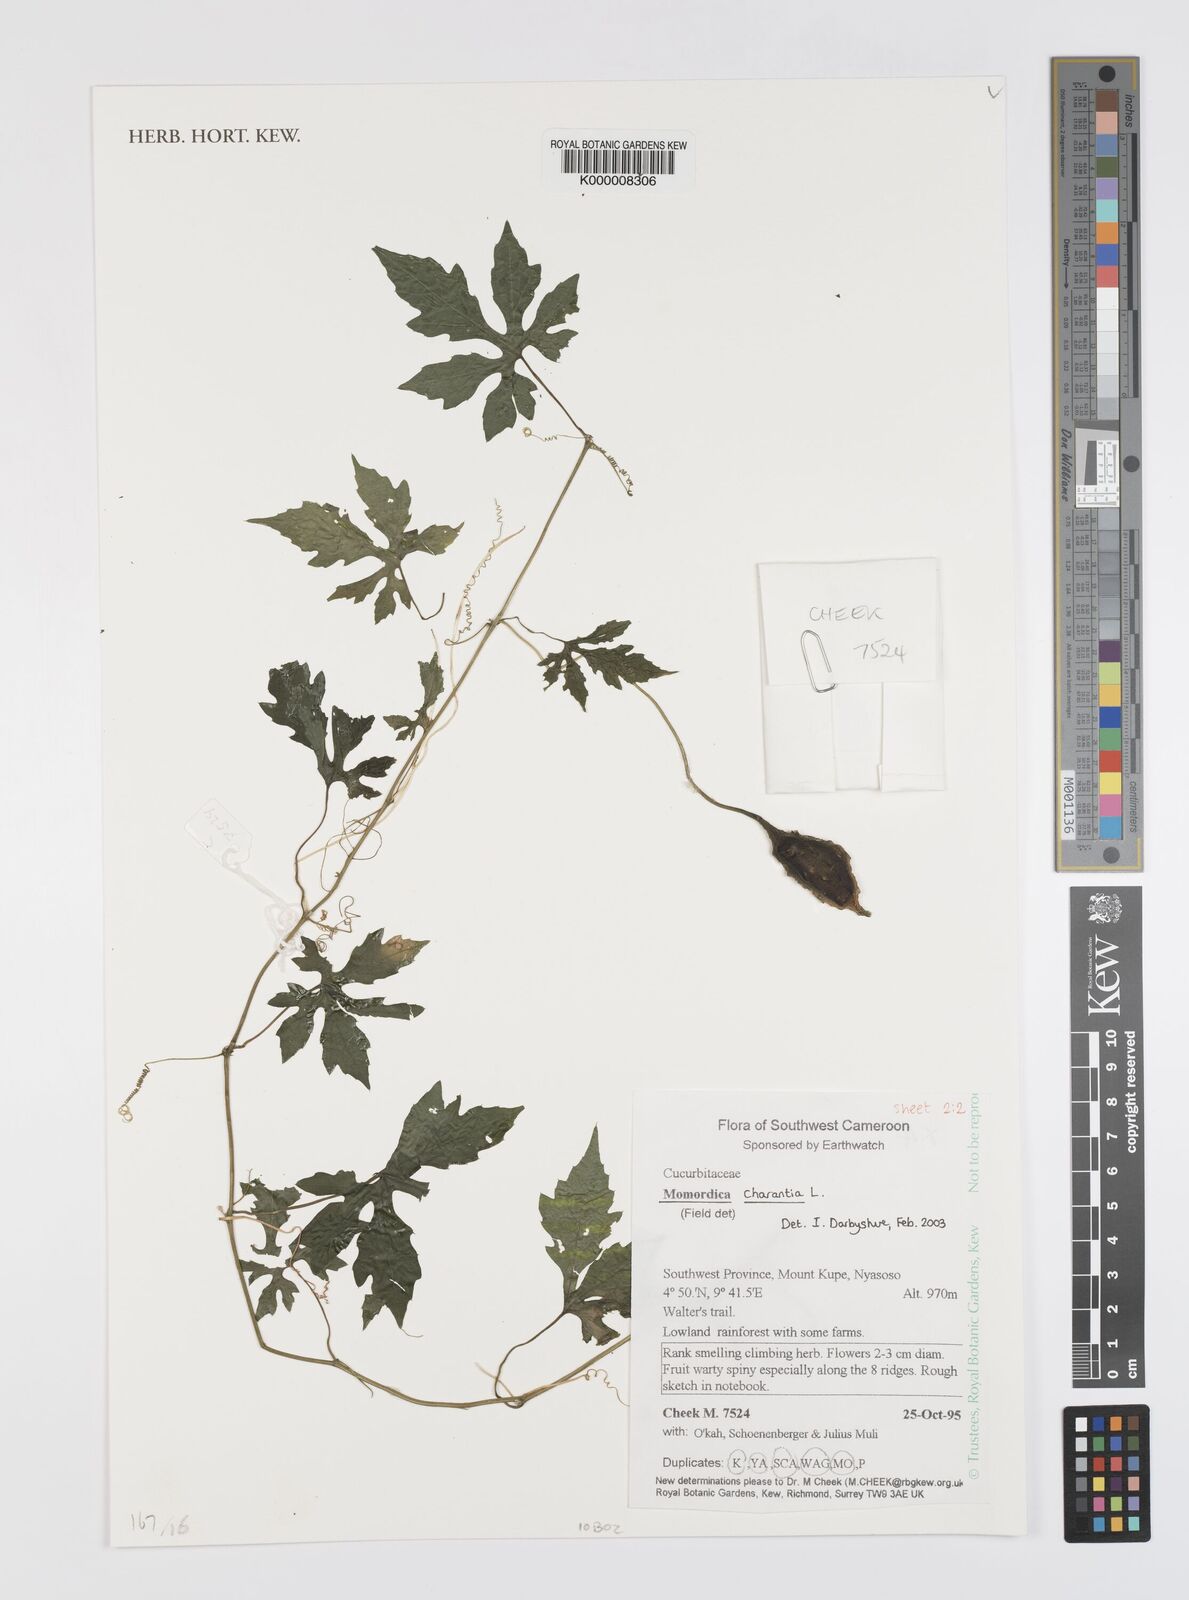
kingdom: Plantae
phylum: Tracheophyta
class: Magnoliopsida
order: Cucurbitales
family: Cucurbitaceae
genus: Momordica
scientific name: Momordica charantia
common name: Balsampear
